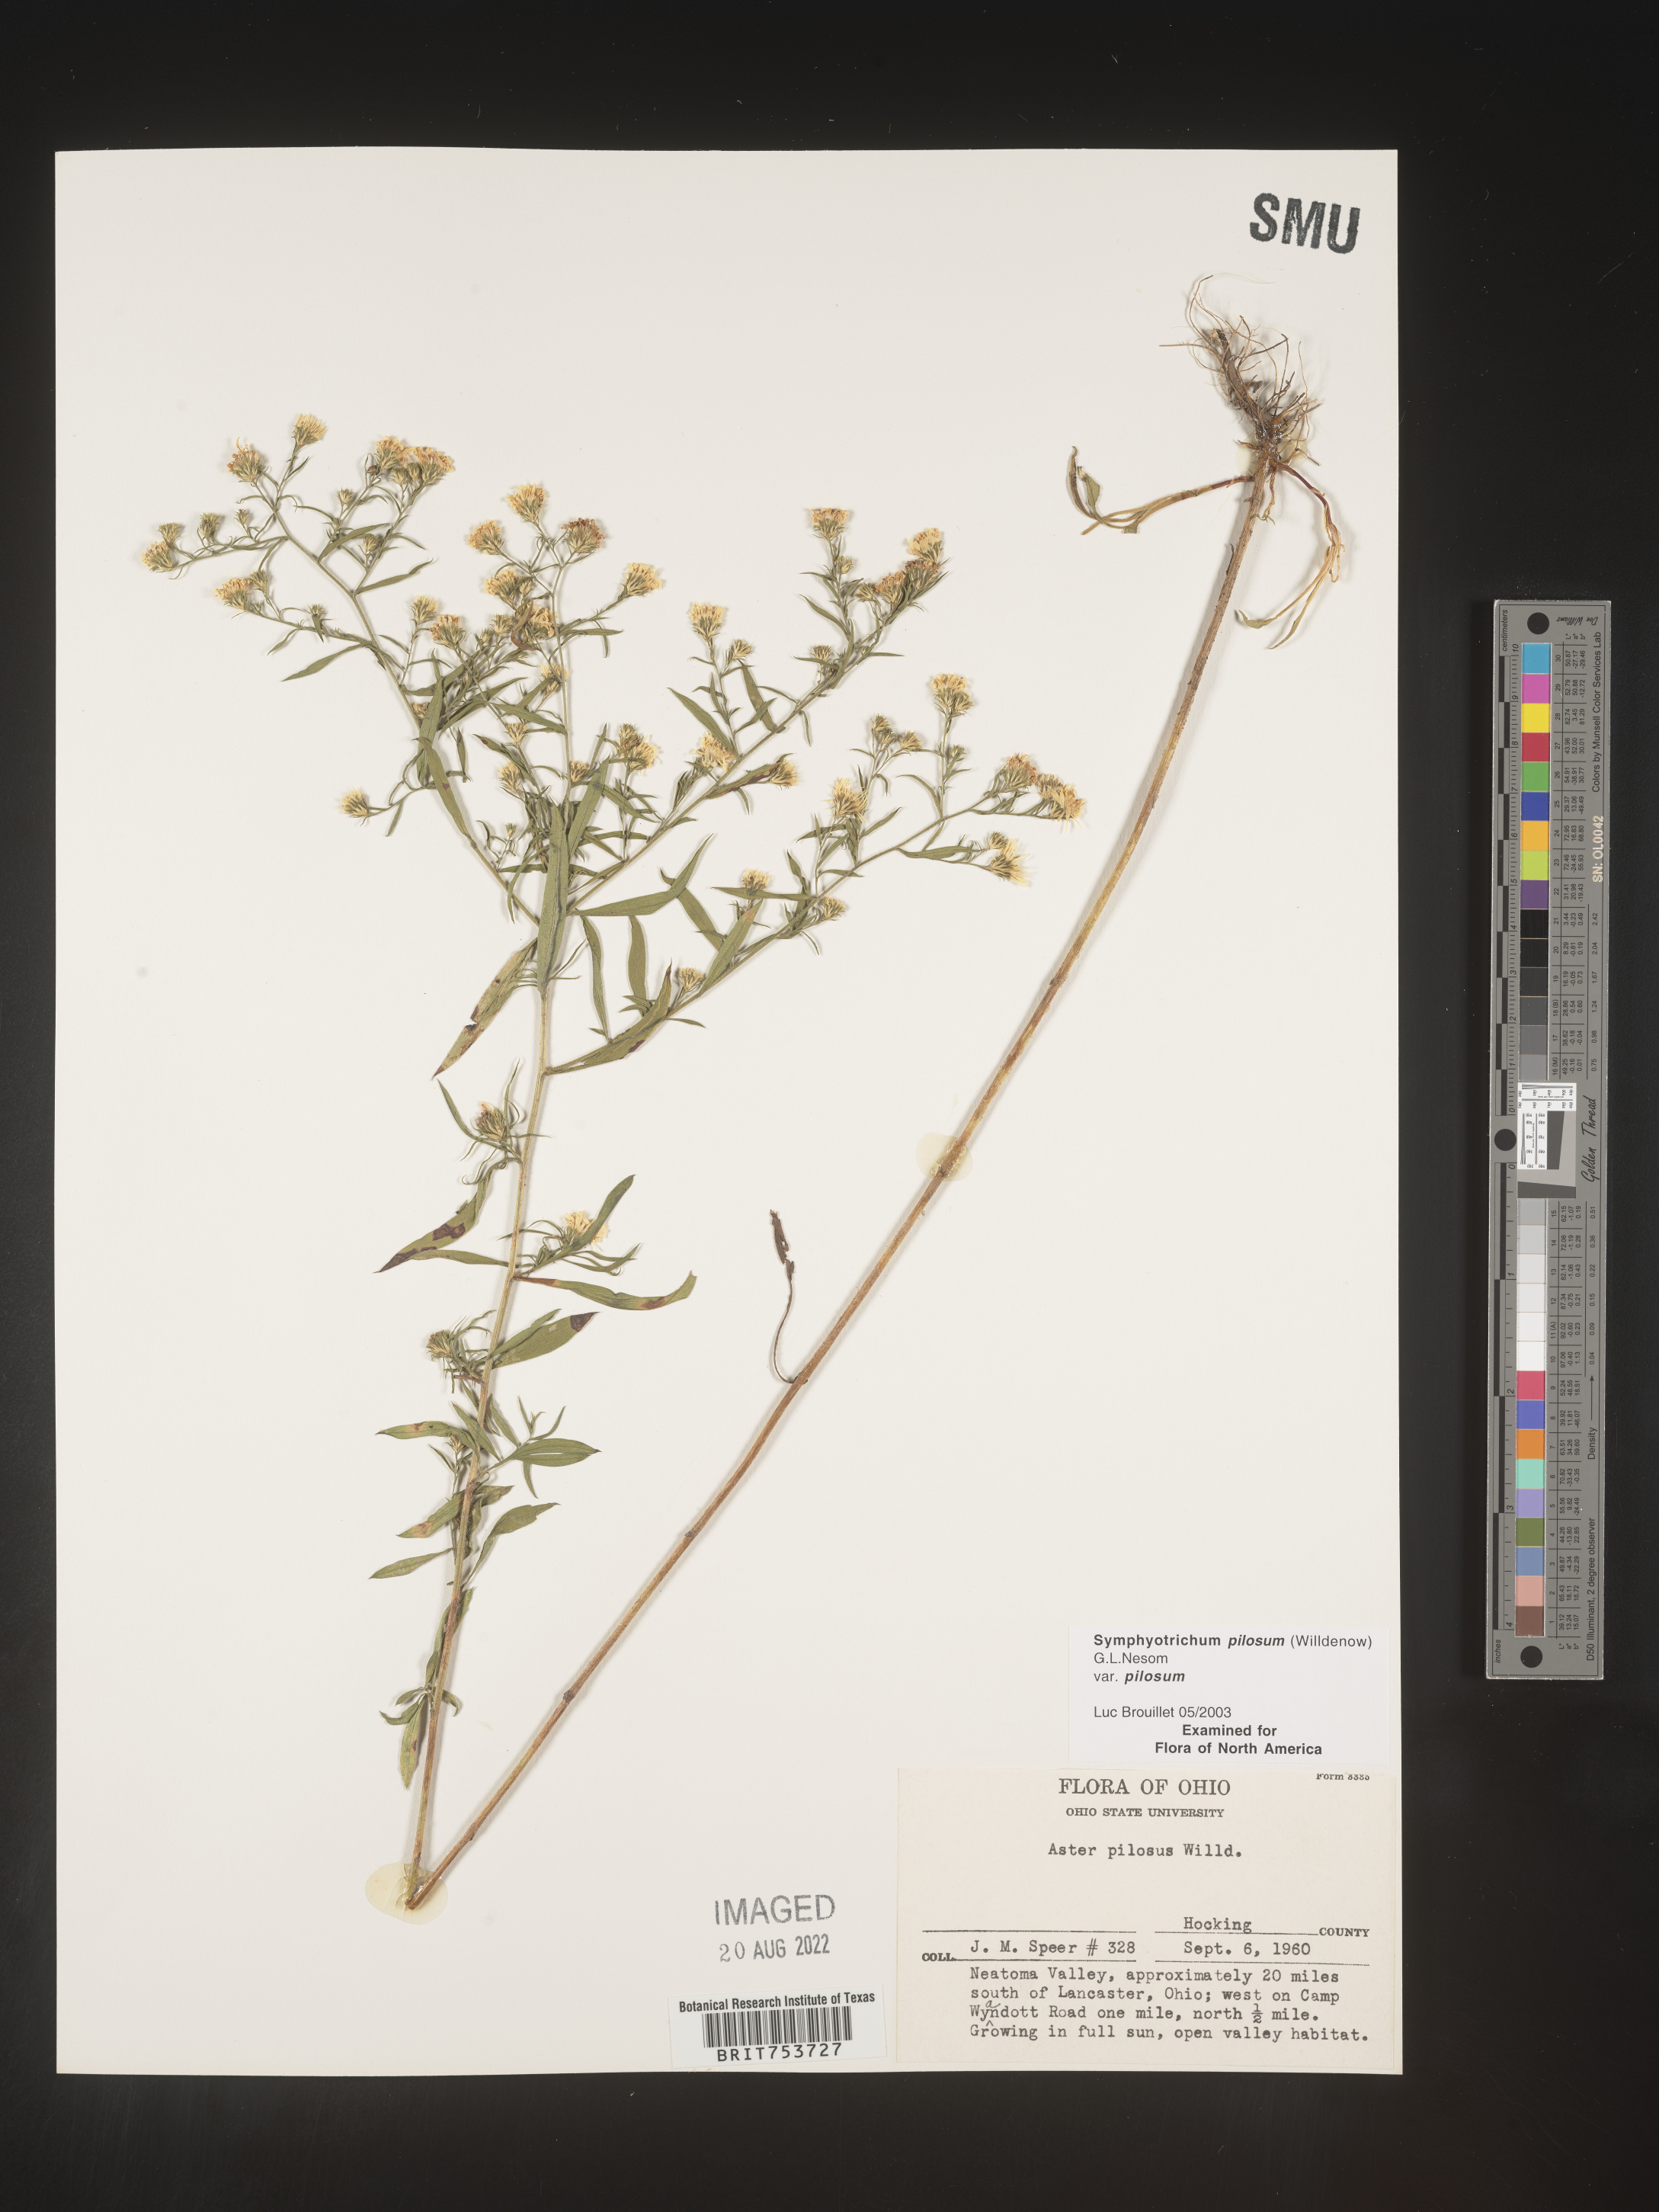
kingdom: Plantae
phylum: Tracheophyta
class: Magnoliopsida
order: Asterales
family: Asteraceae
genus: Symphyotrichum
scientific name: Symphyotrichum pilosum
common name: Awl aster
